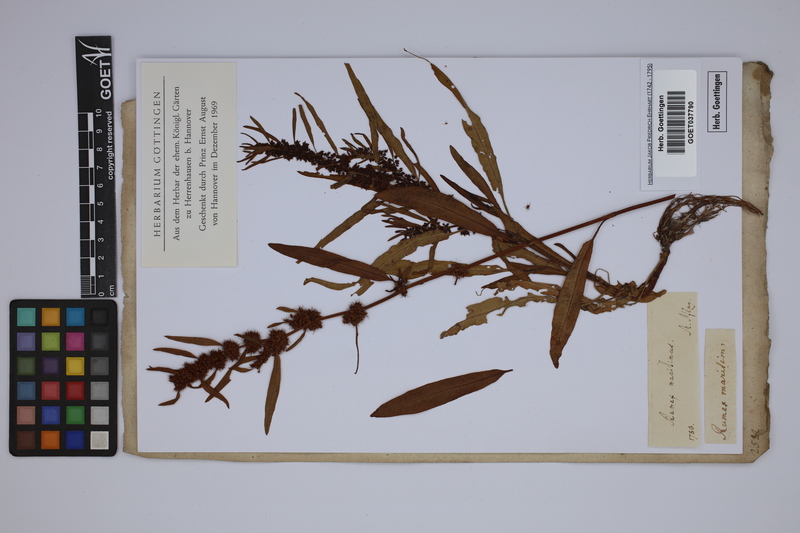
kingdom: Plantae
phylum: Tracheophyta
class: Magnoliopsida
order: Caryophyllales
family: Polygonaceae
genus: Rumex
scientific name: Rumex maritimus
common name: Golden dock
